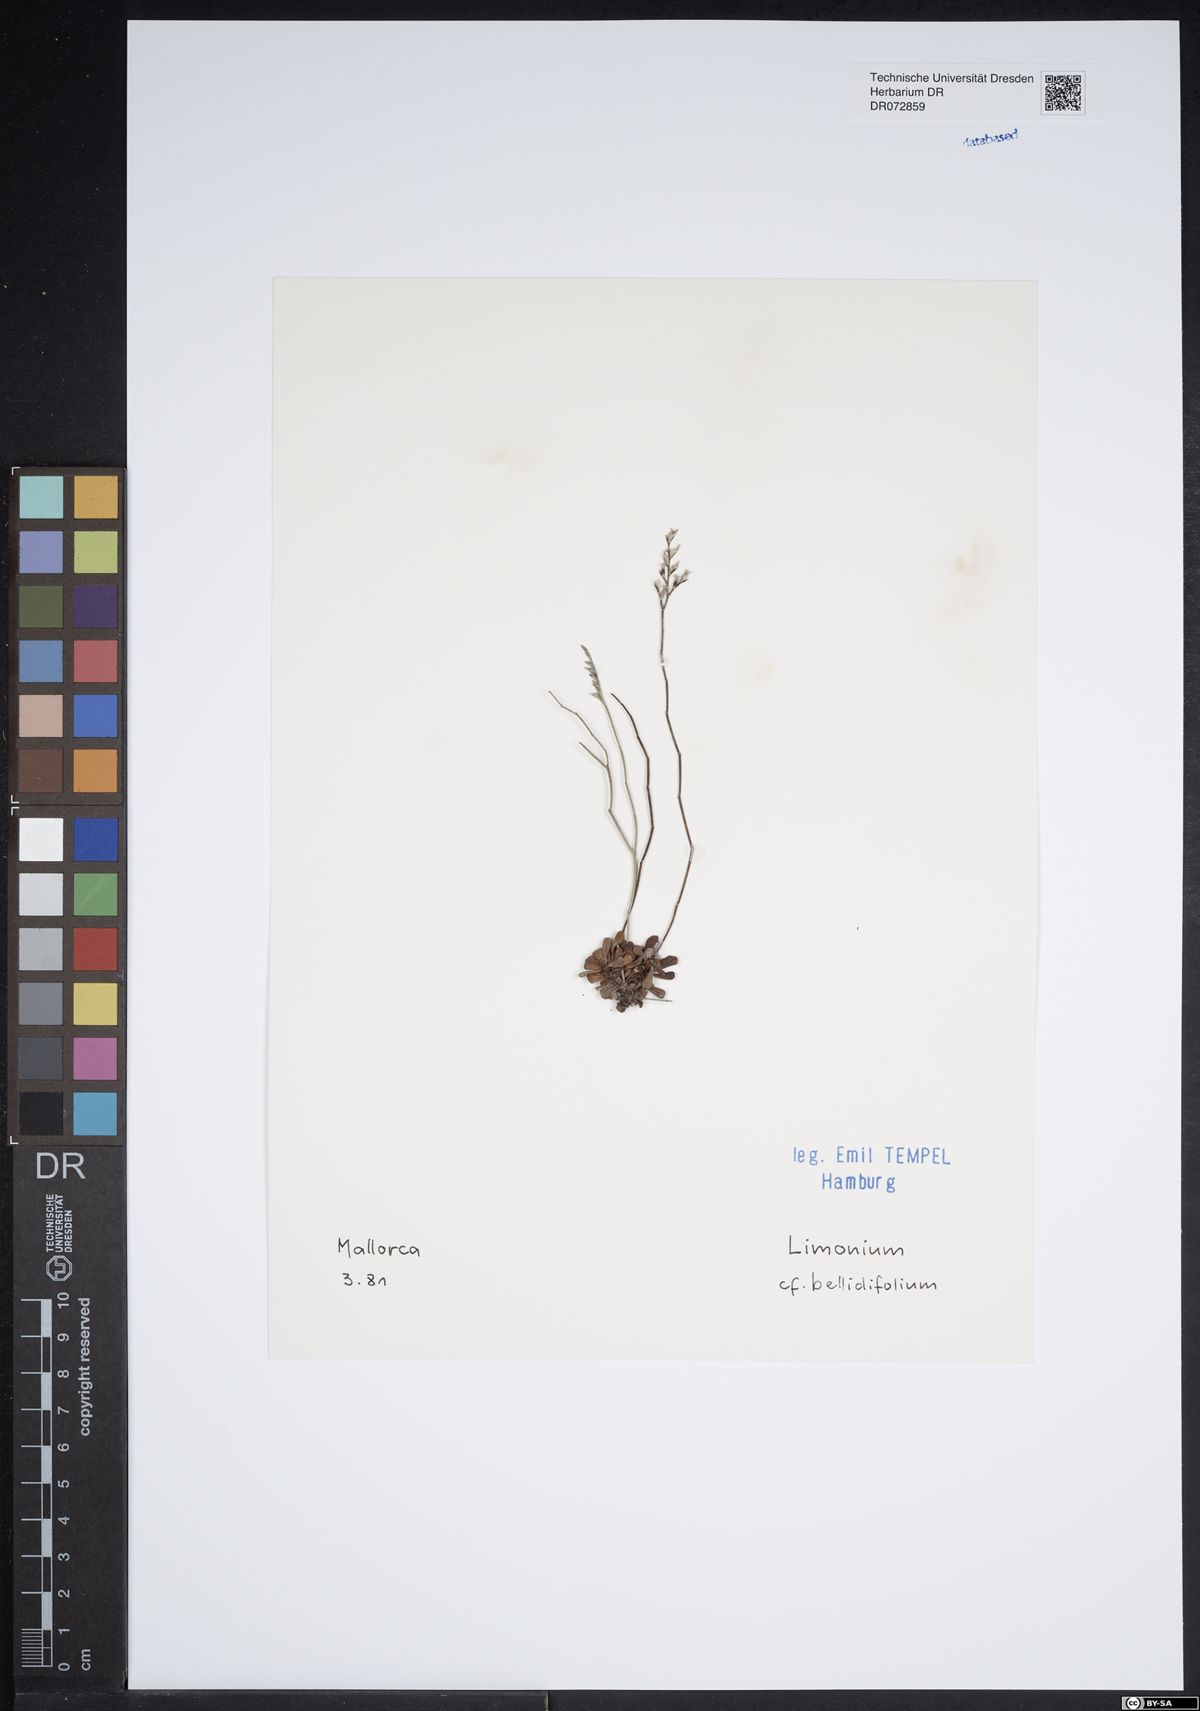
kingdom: Plantae
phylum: Tracheophyta
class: Magnoliopsida
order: Caryophyllales
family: Plumbaginaceae
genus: Limonium
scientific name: Limonium bellidifolium
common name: Matted sea-lavender
